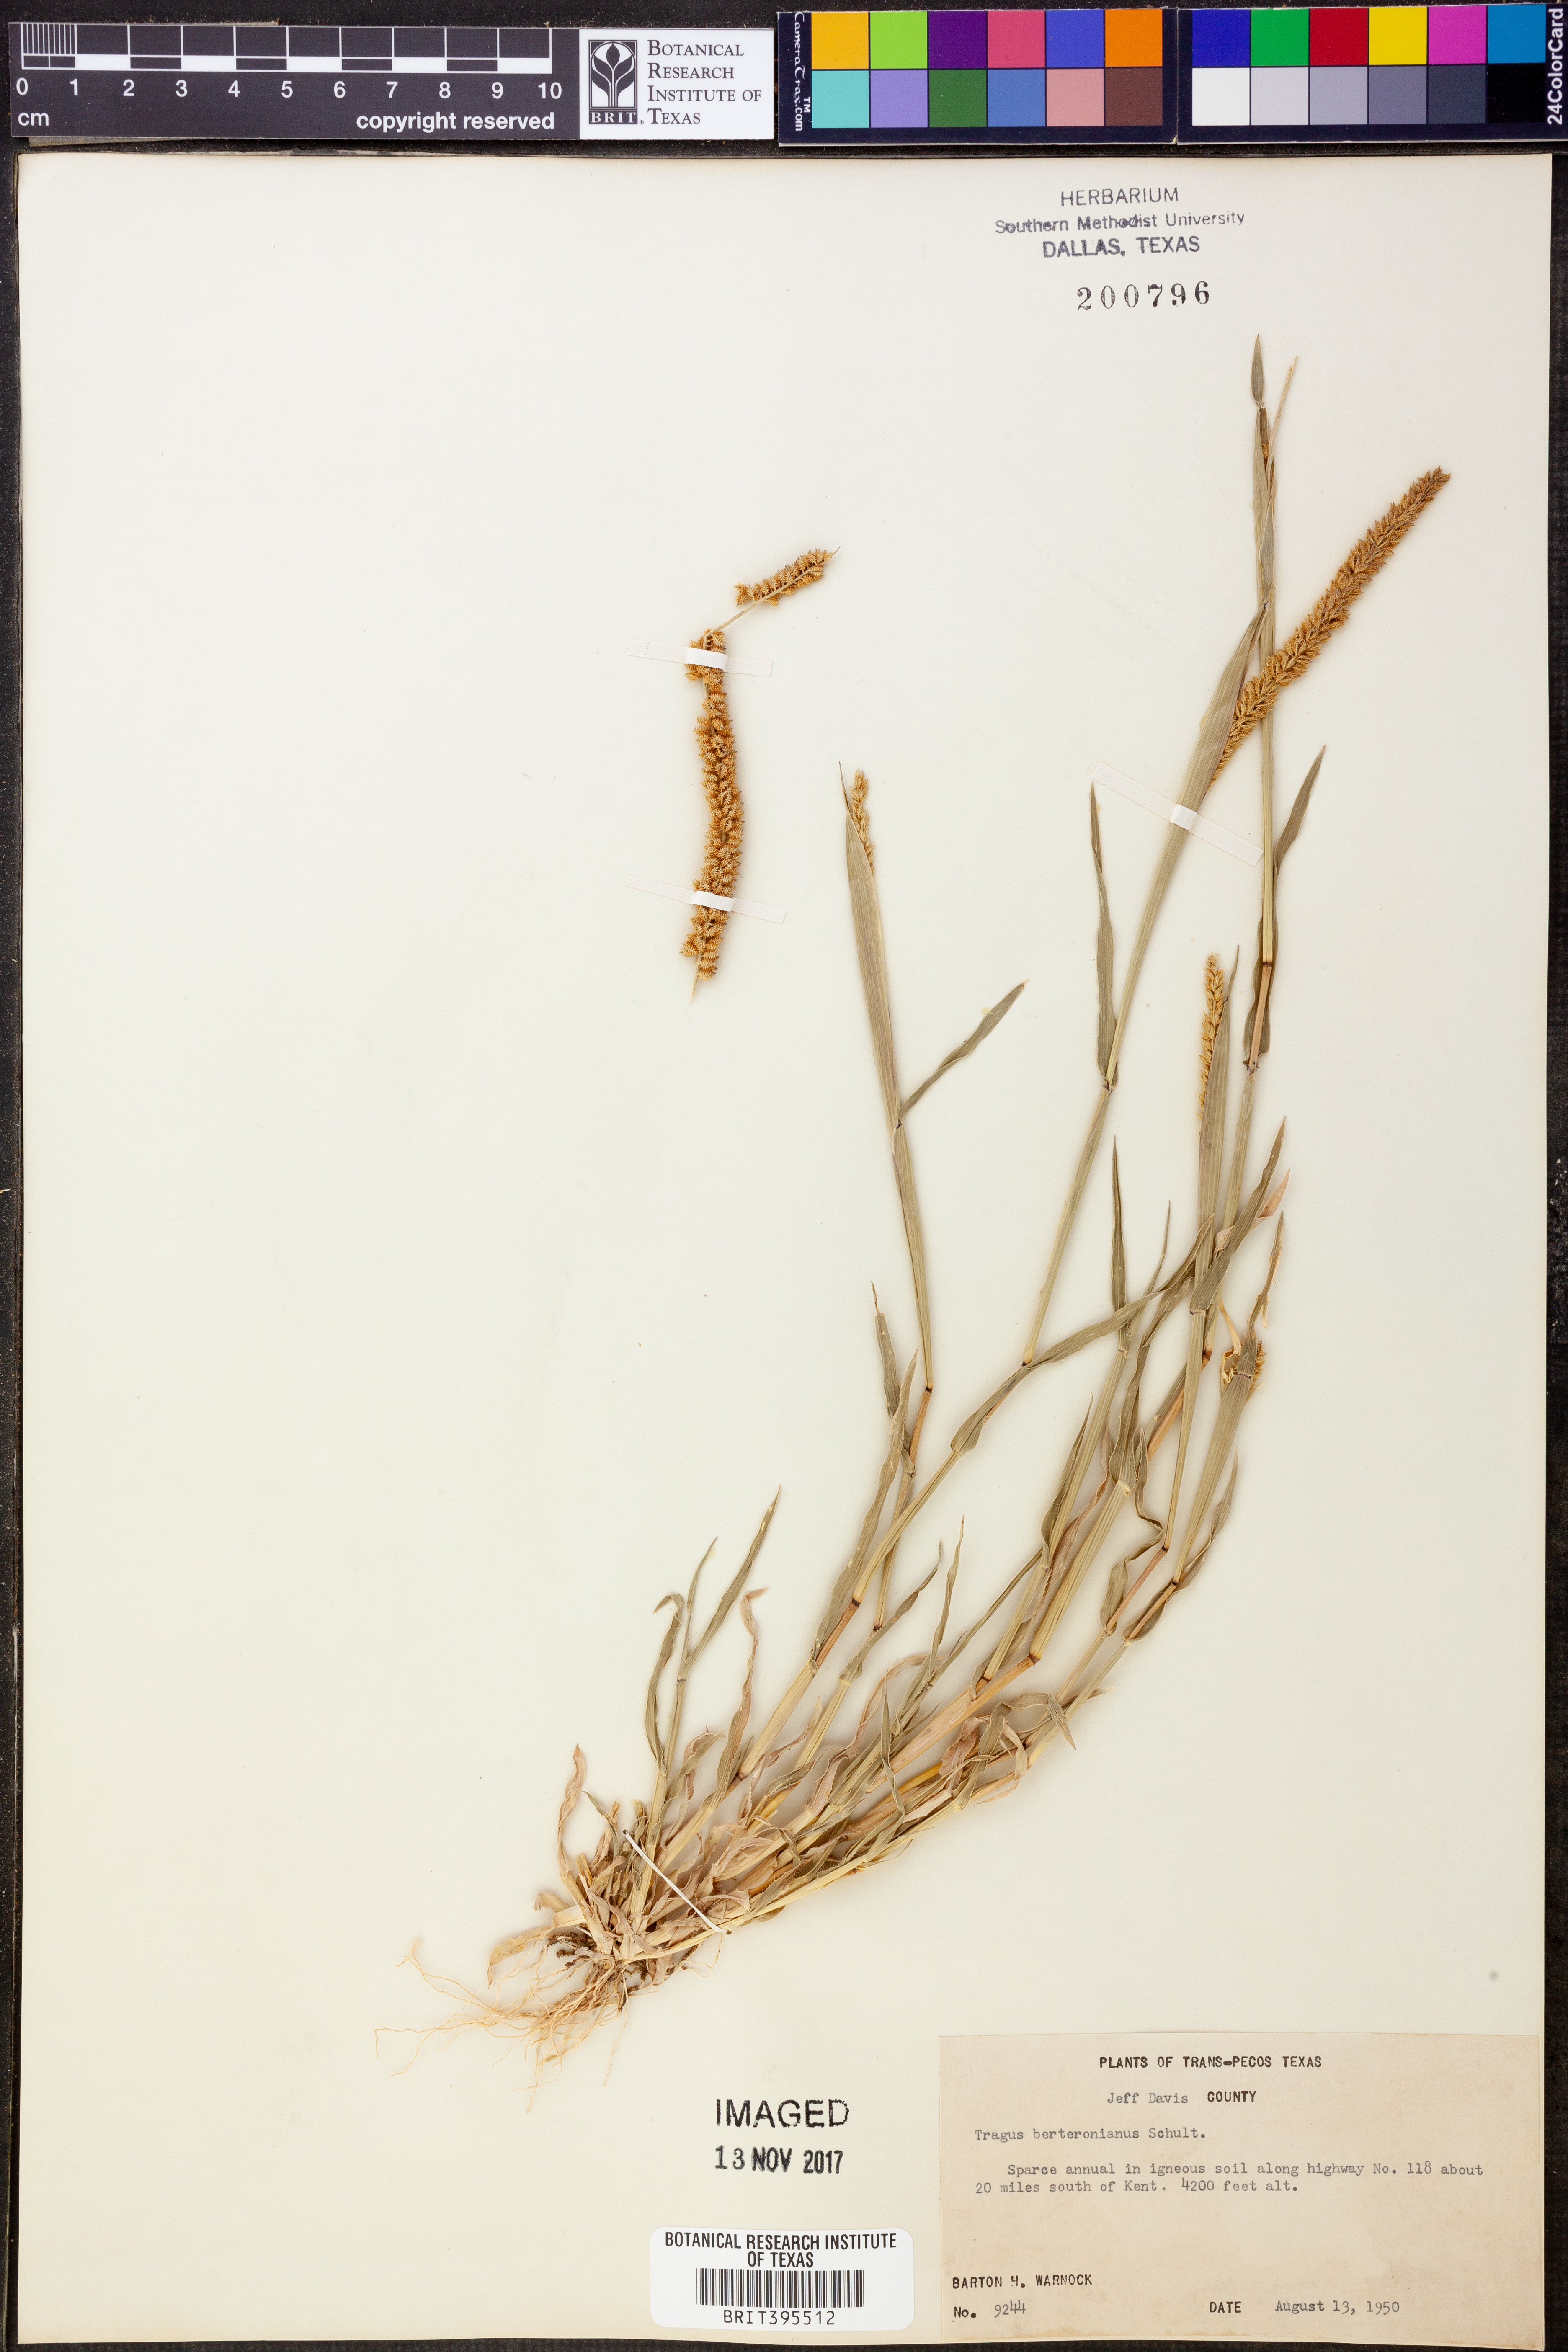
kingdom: Plantae
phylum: Tracheophyta
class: Liliopsida
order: Poales
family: Poaceae
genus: Tragus
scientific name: Tragus berteronianus
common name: African bur-grass
